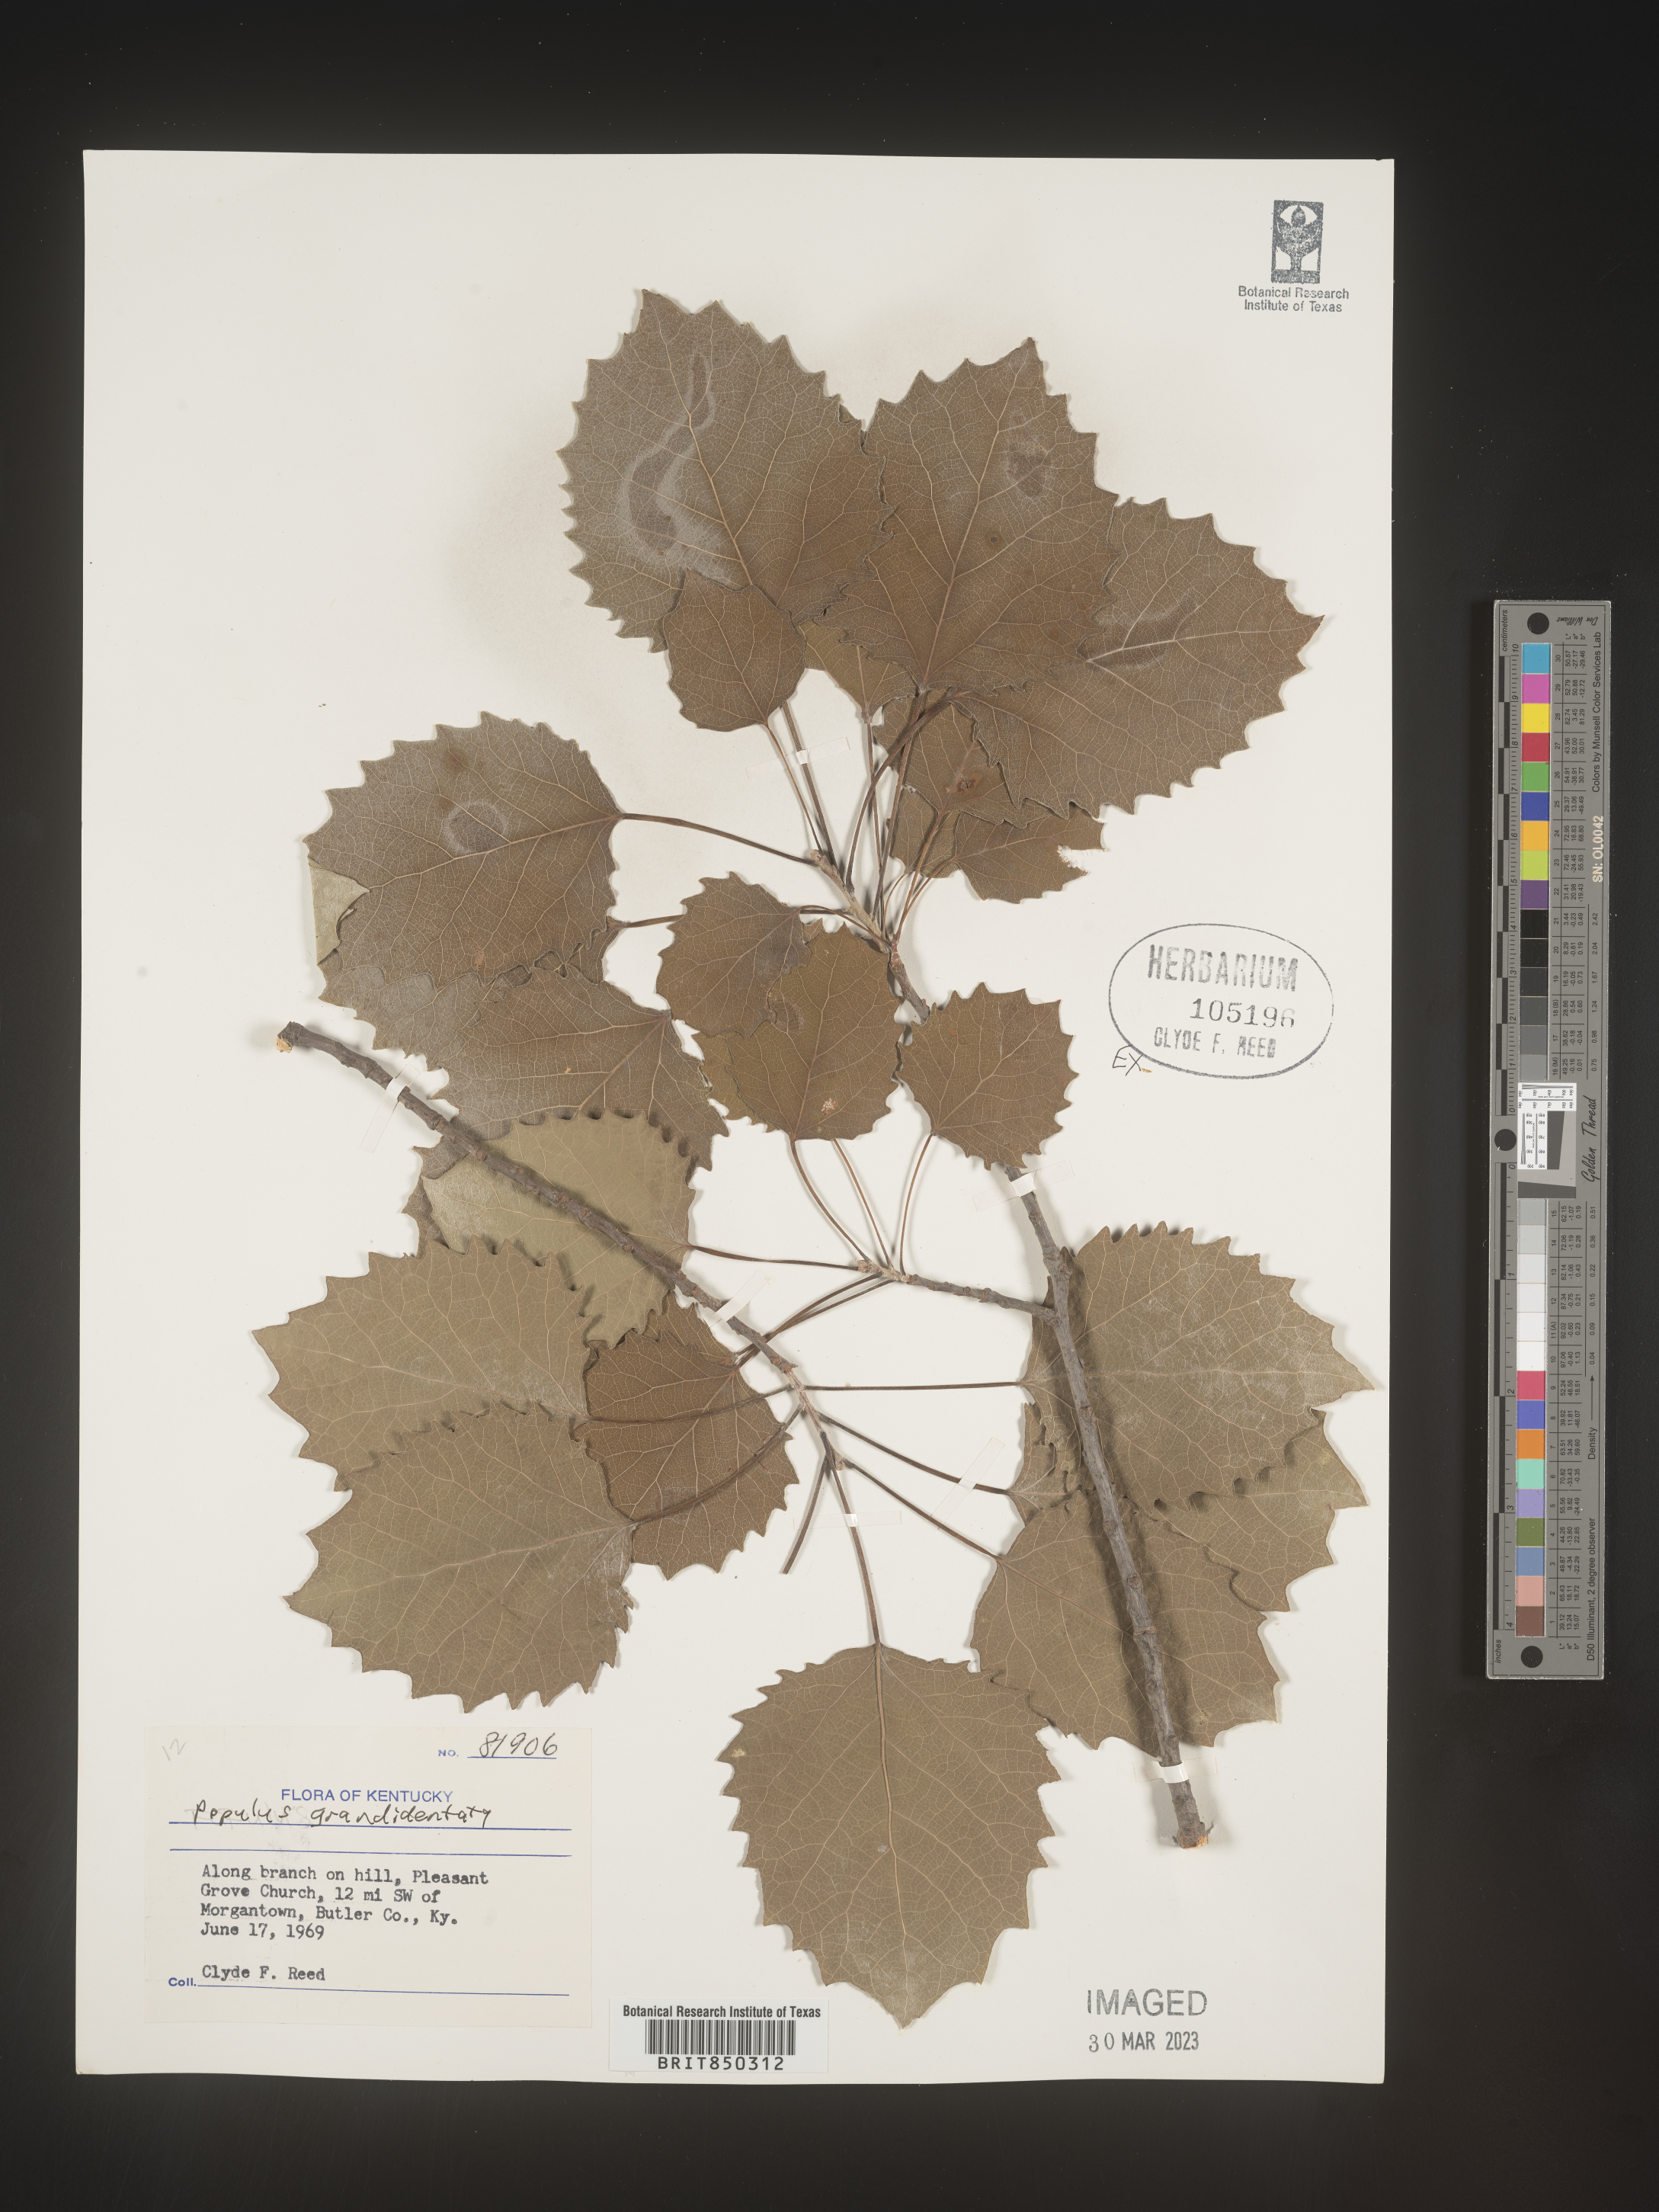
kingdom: Plantae
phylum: Tracheophyta
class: Magnoliopsida
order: Malpighiales
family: Salicaceae
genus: Populus
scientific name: Populus grandidentata
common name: Bigtooth aspen
